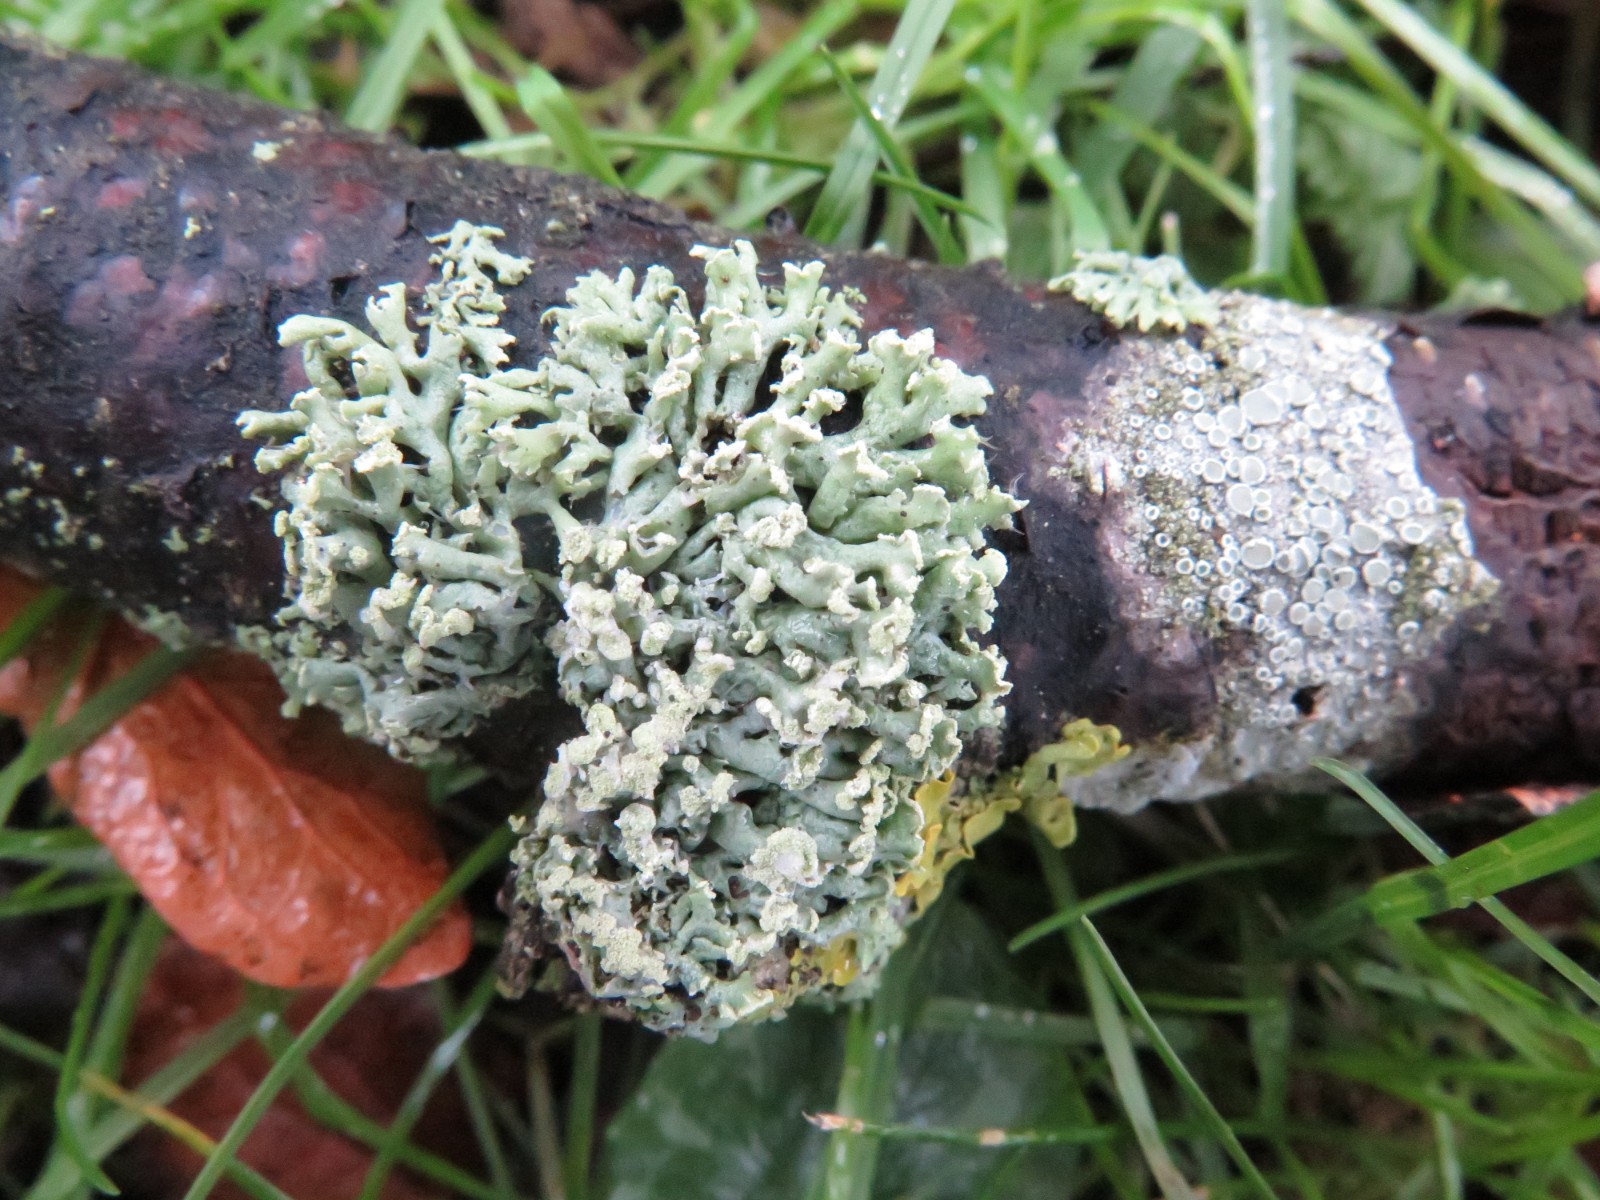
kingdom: Fungi
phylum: Ascomycota
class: Lecanoromycetes
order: Lecanorales
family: Parmeliaceae
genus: Hypogymnia
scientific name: Hypogymnia physodes
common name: almindelig kvistlav
